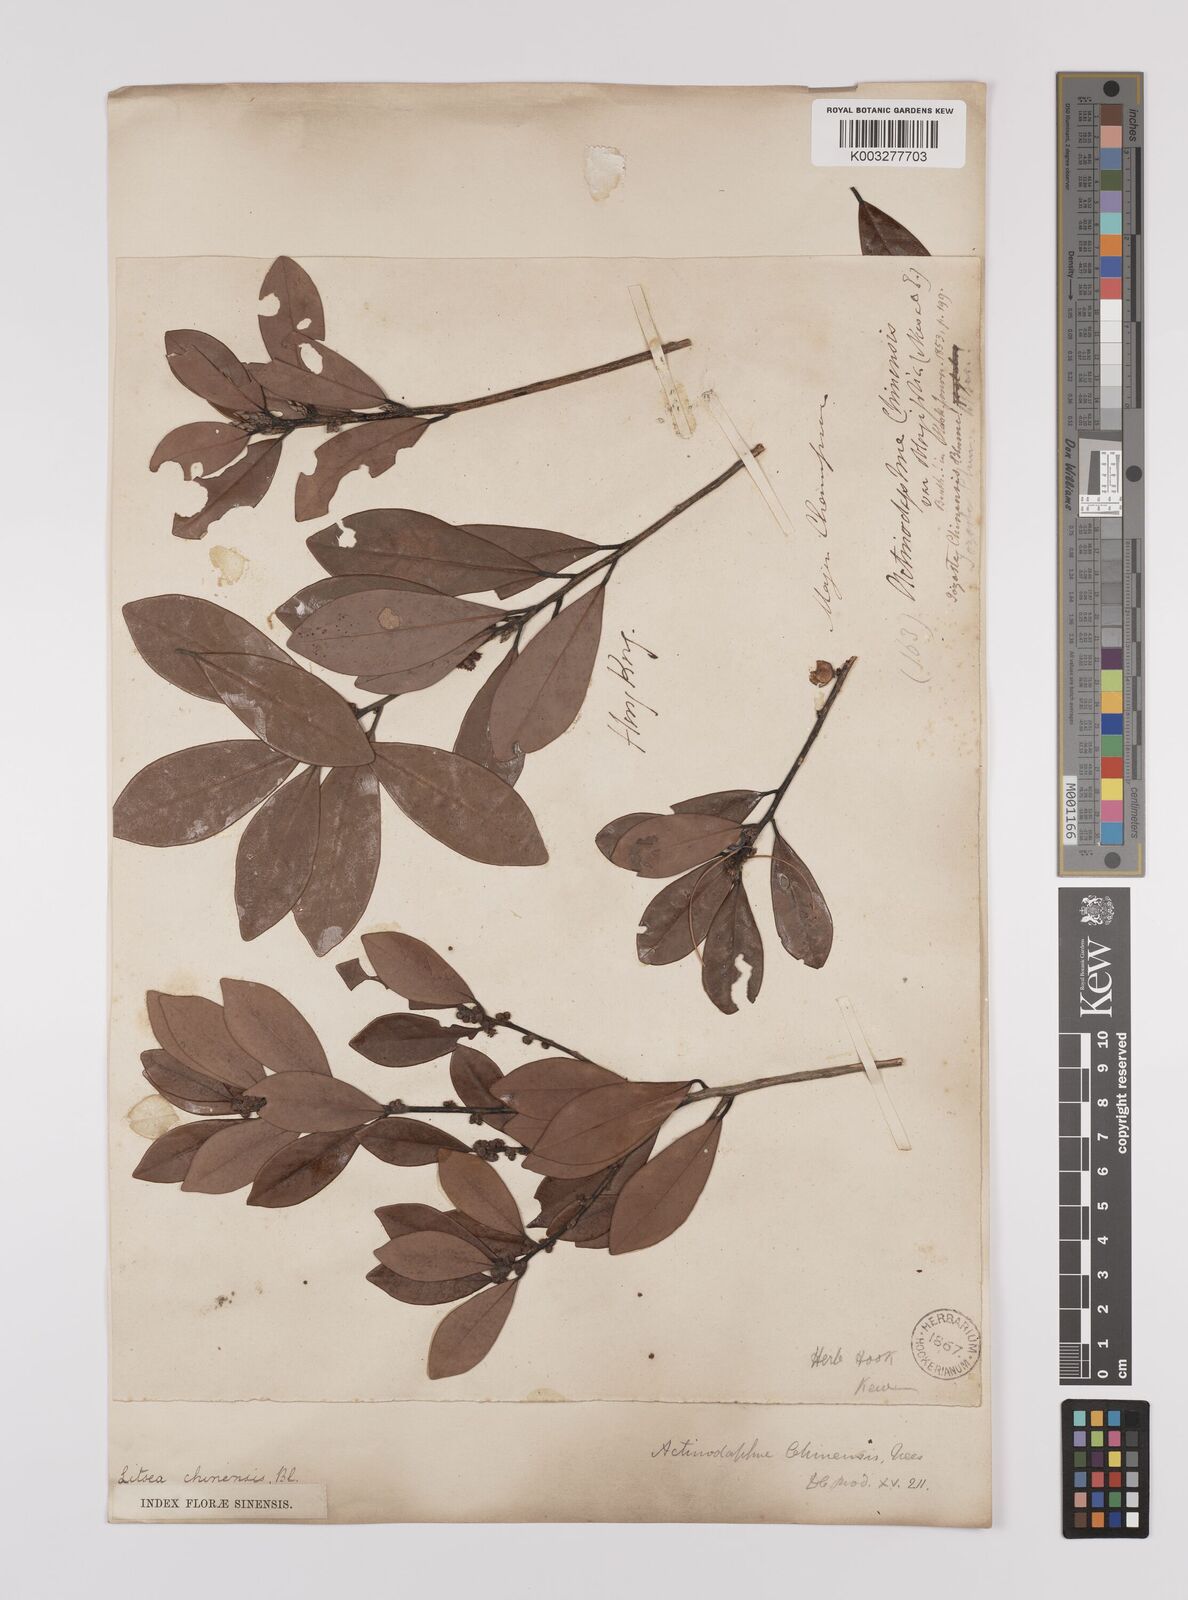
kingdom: Plantae
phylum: Tracheophyta
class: Magnoliopsida
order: Laurales
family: Lauraceae
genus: Litsea
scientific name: Litsea rotundifolia
